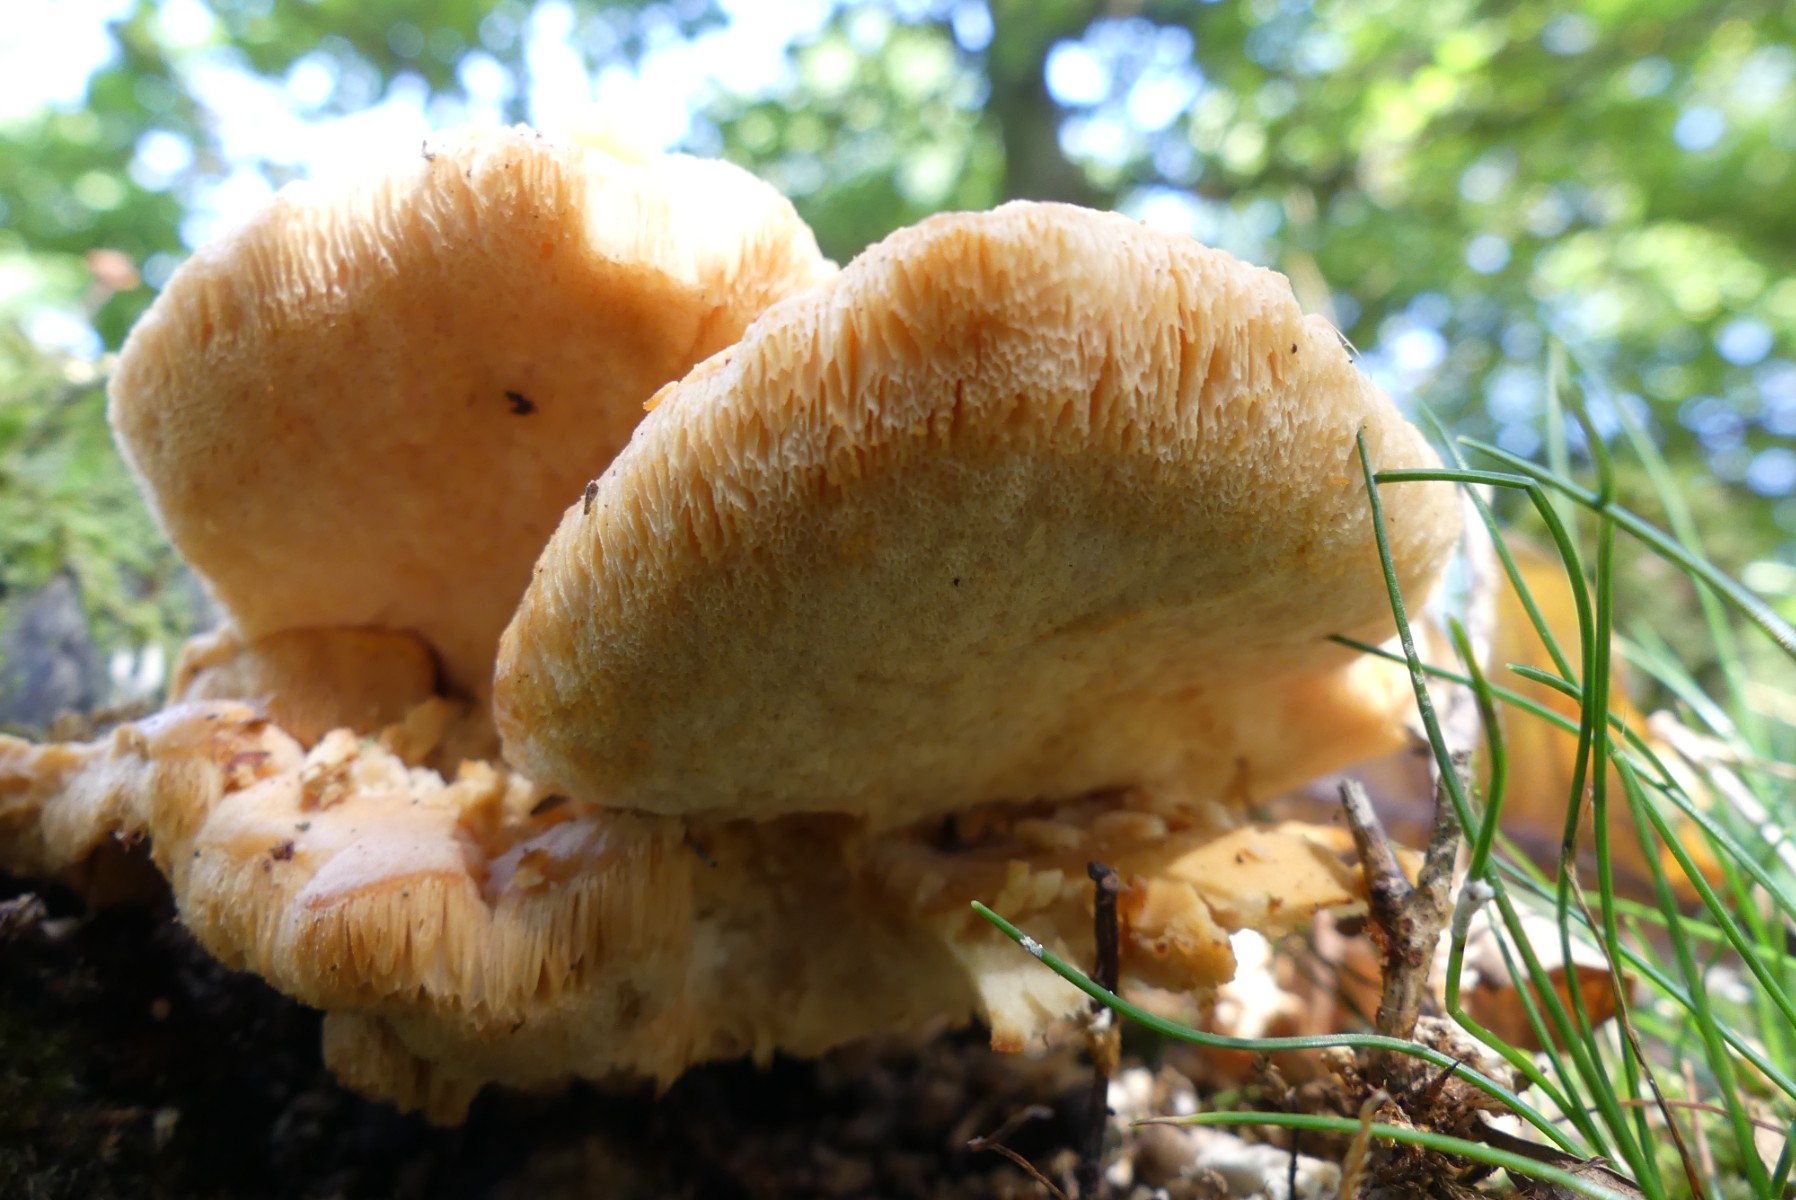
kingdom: Fungi
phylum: Basidiomycota
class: Agaricomycetes
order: Polyporales
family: Irpicaceae
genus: Emmia
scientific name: Emmia
